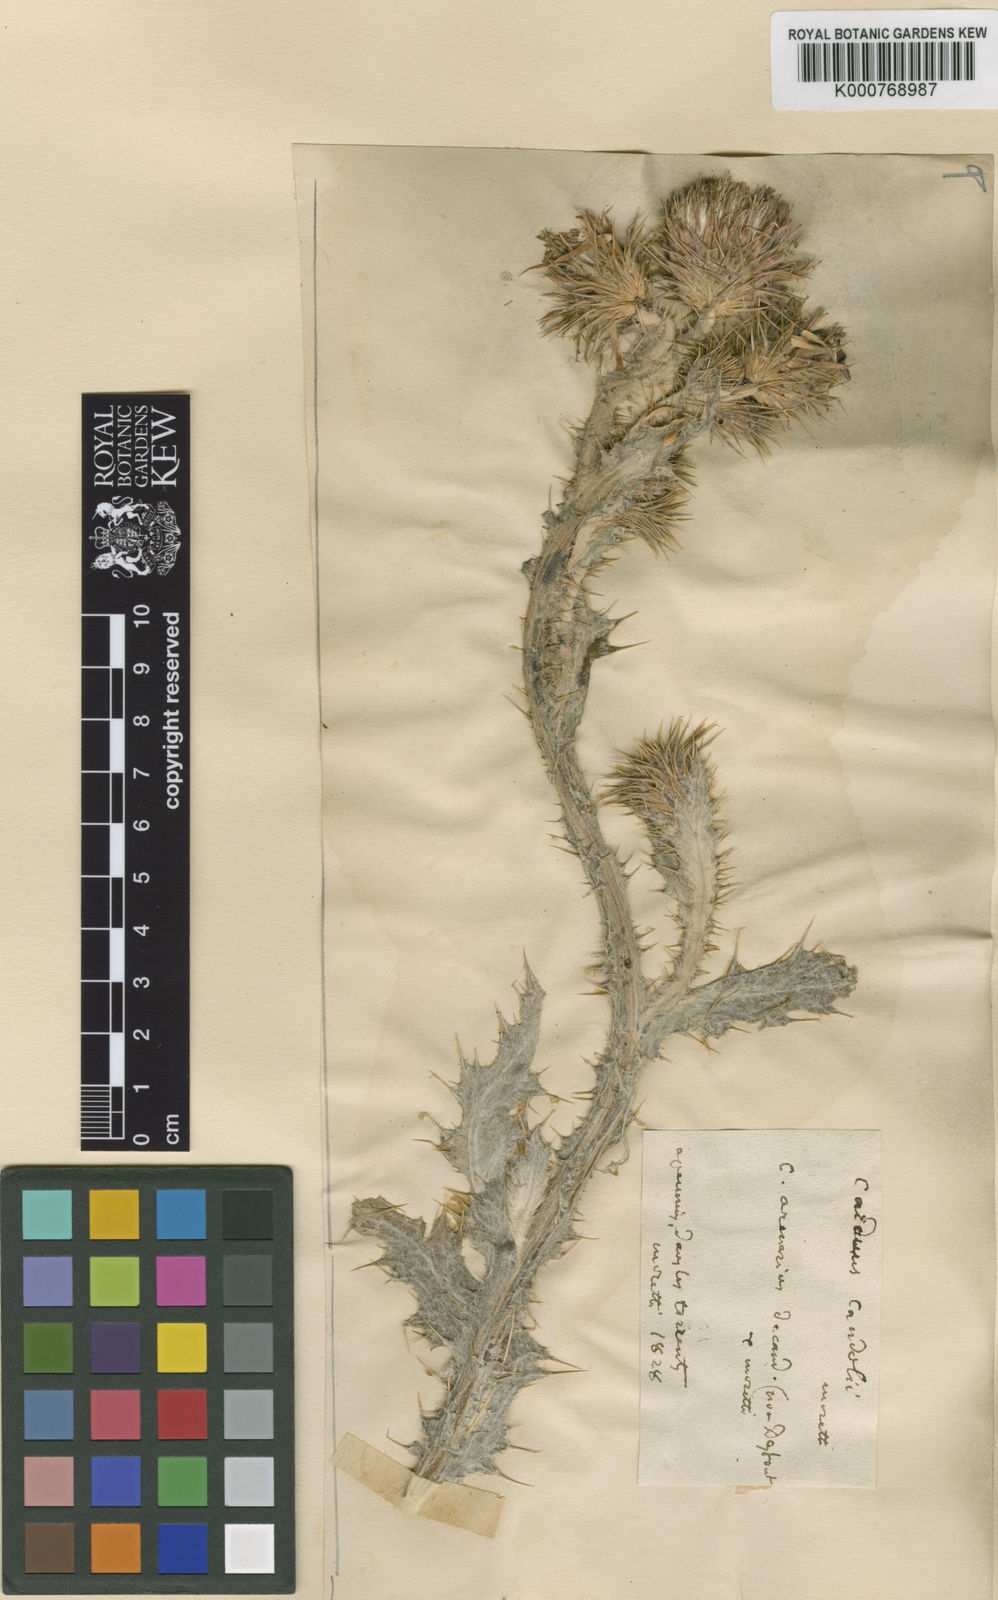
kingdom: Plantae
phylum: Tracheophyta
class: Magnoliopsida
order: Asterales
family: Asteraceae
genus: Carduus
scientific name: Carduus litigiosus
